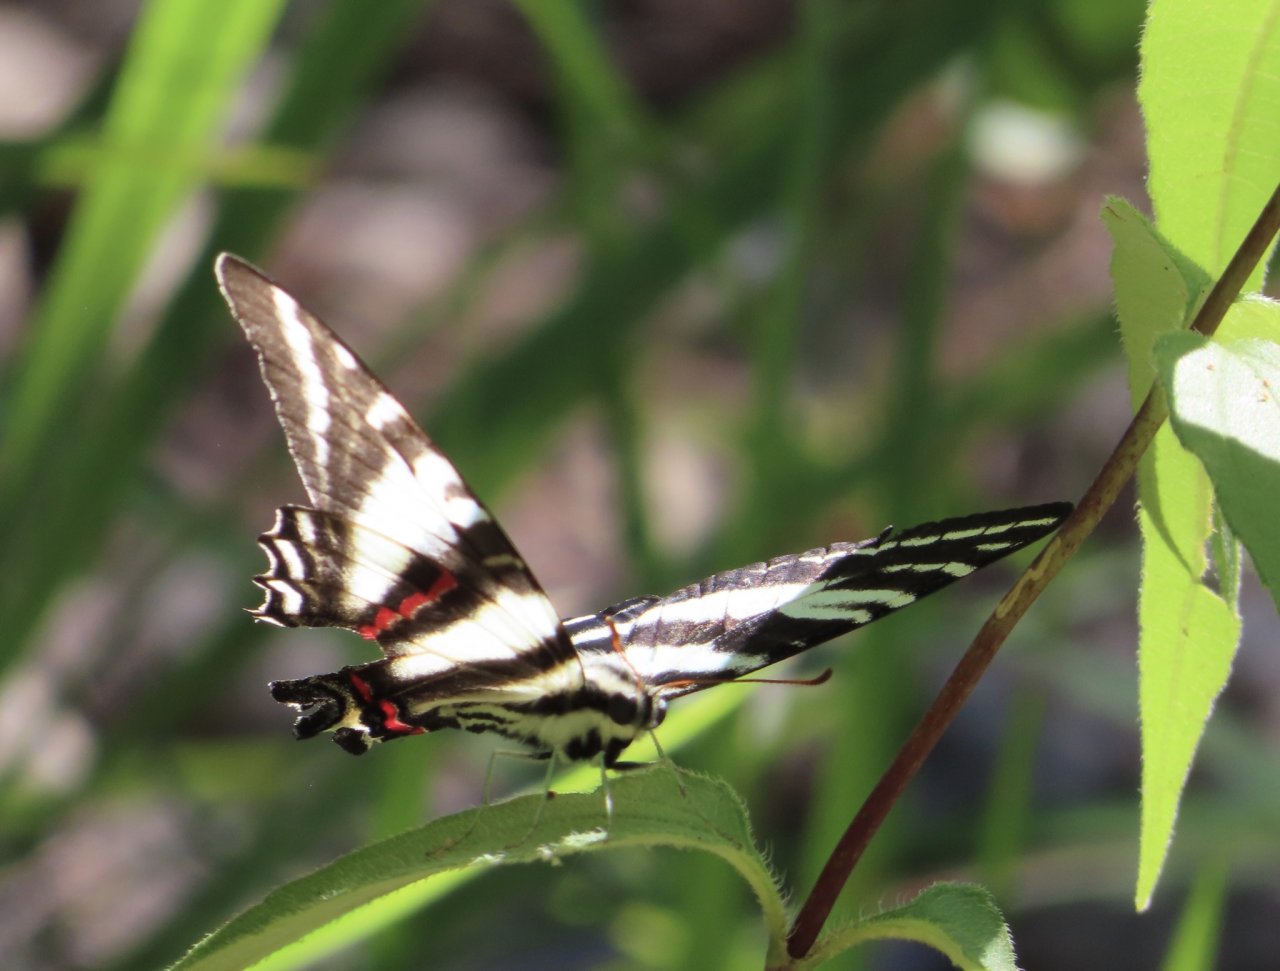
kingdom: Animalia
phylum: Arthropoda
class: Insecta
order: Lepidoptera
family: Papilionidae
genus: Protographium
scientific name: Protographium marcellus
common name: Zebra Swallowtail
